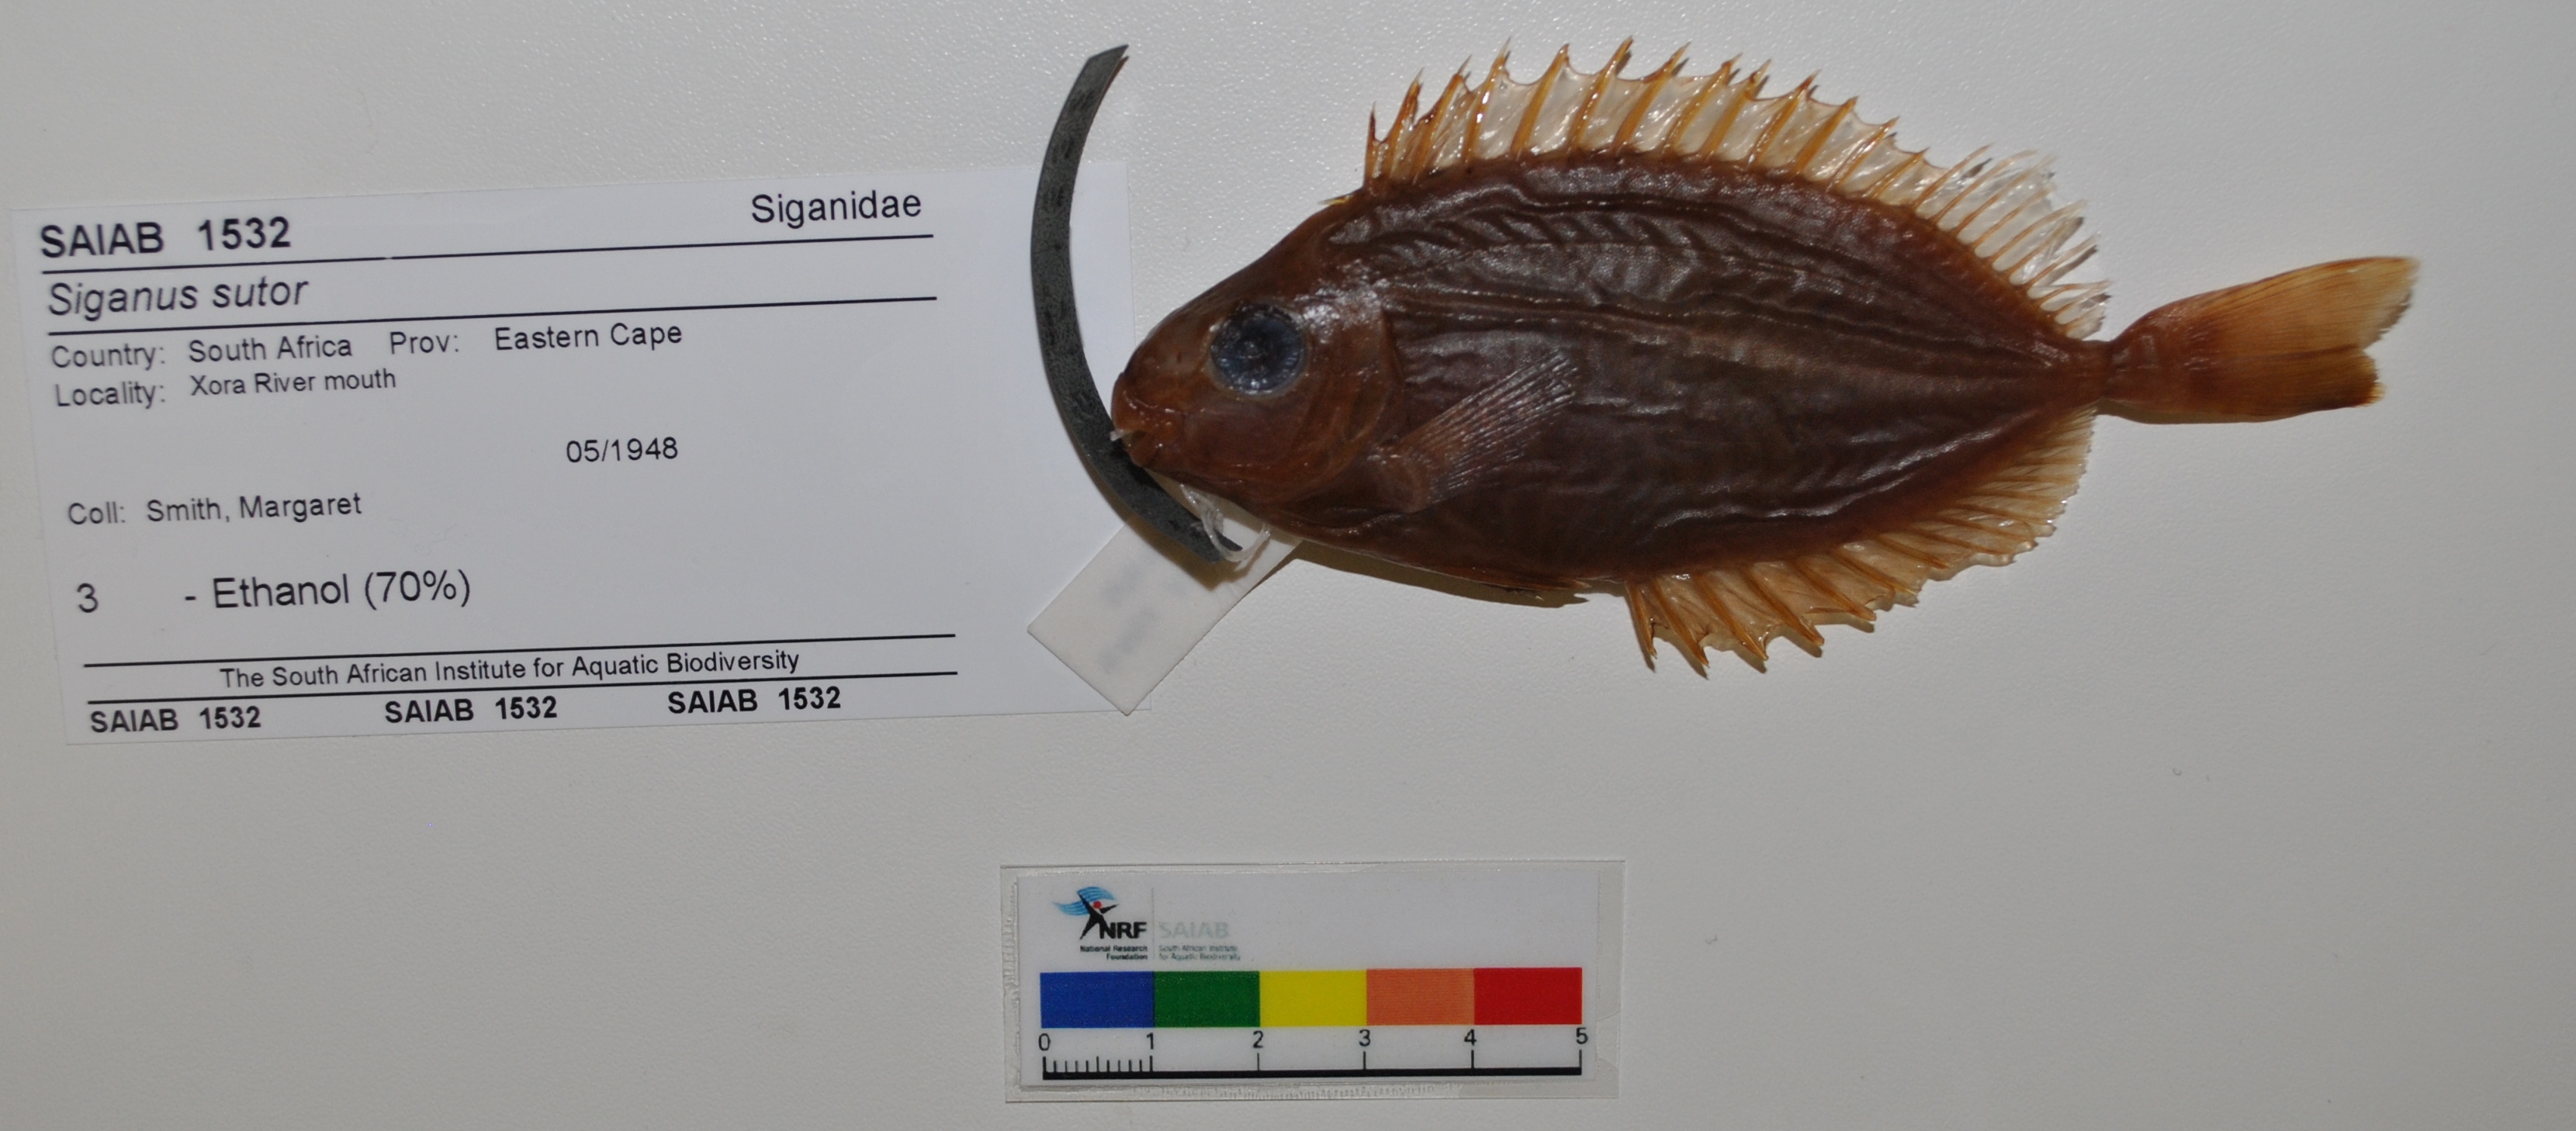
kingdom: Animalia
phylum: Chordata
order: Perciformes
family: Siganidae
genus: Siganus
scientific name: Siganus sutor
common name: Shoemaker spinefoot
